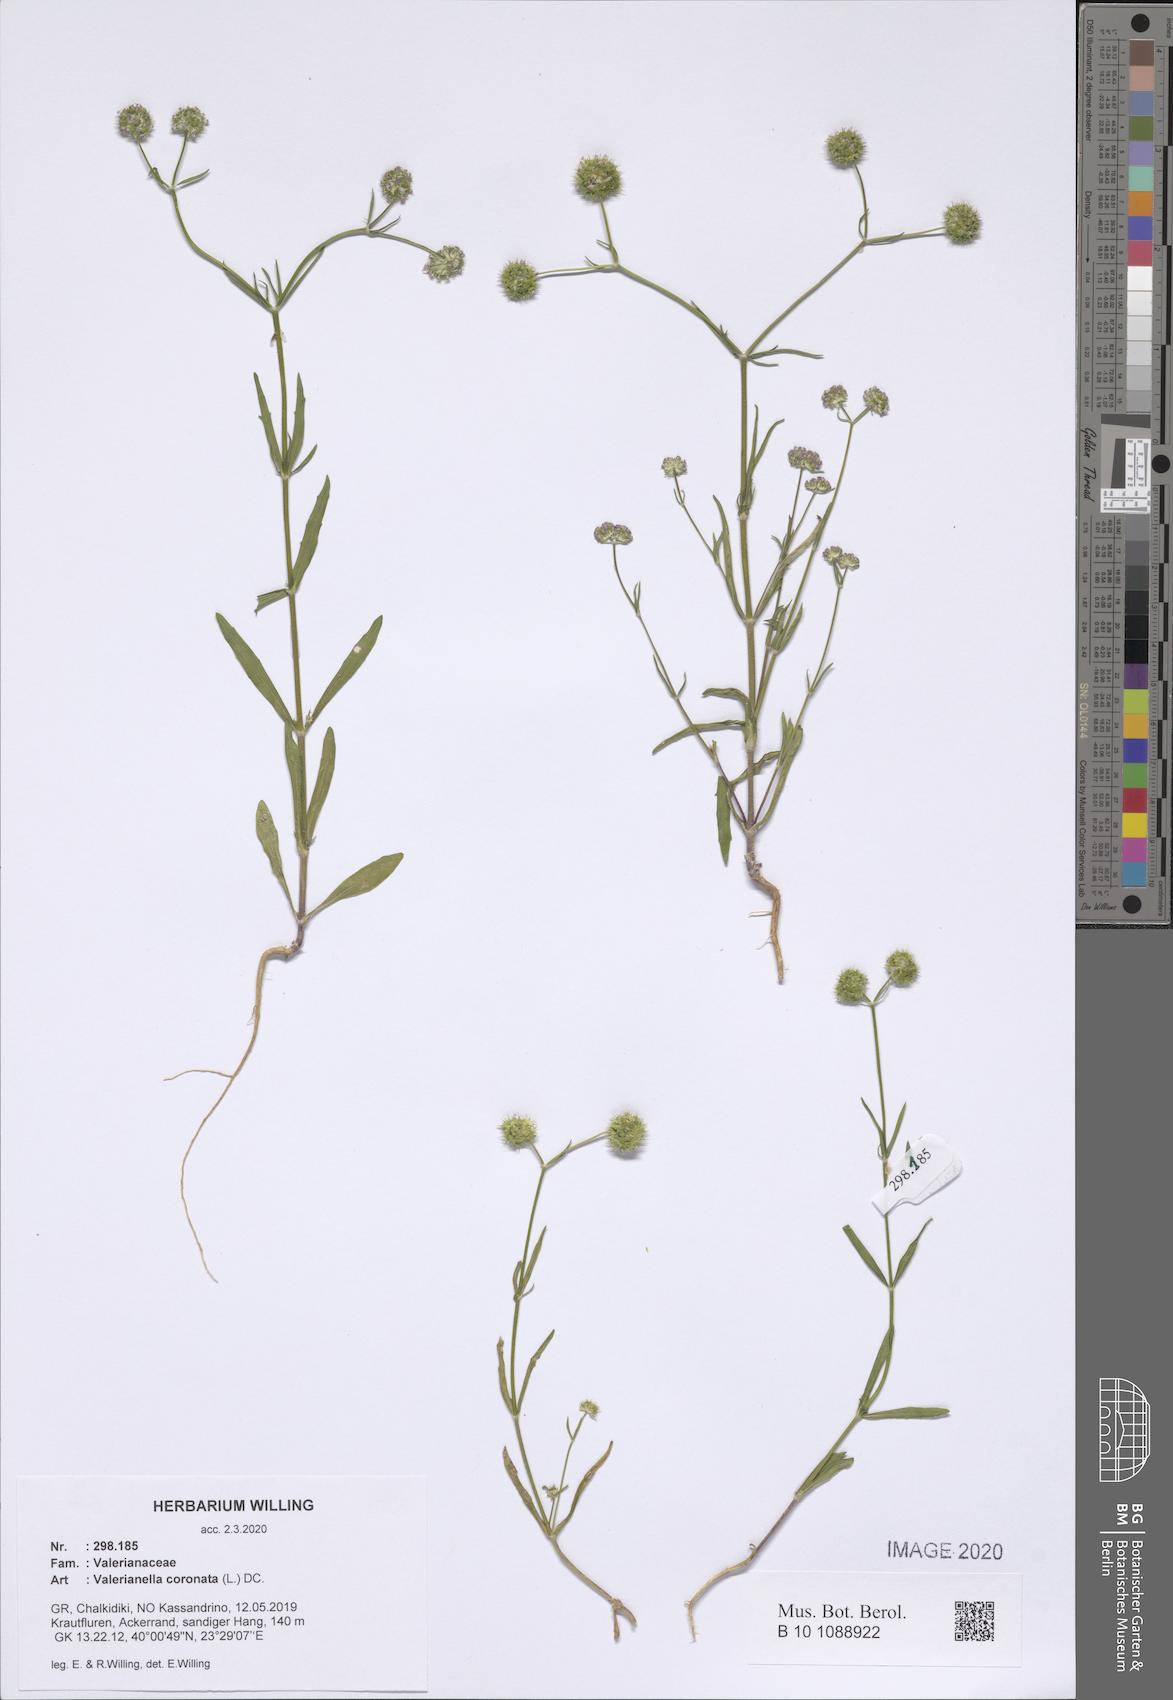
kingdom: Plantae
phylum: Tracheophyta
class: Magnoliopsida
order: Dipsacales
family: Caprifoliaceae
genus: Valerianella
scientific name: Valerianella coronata
